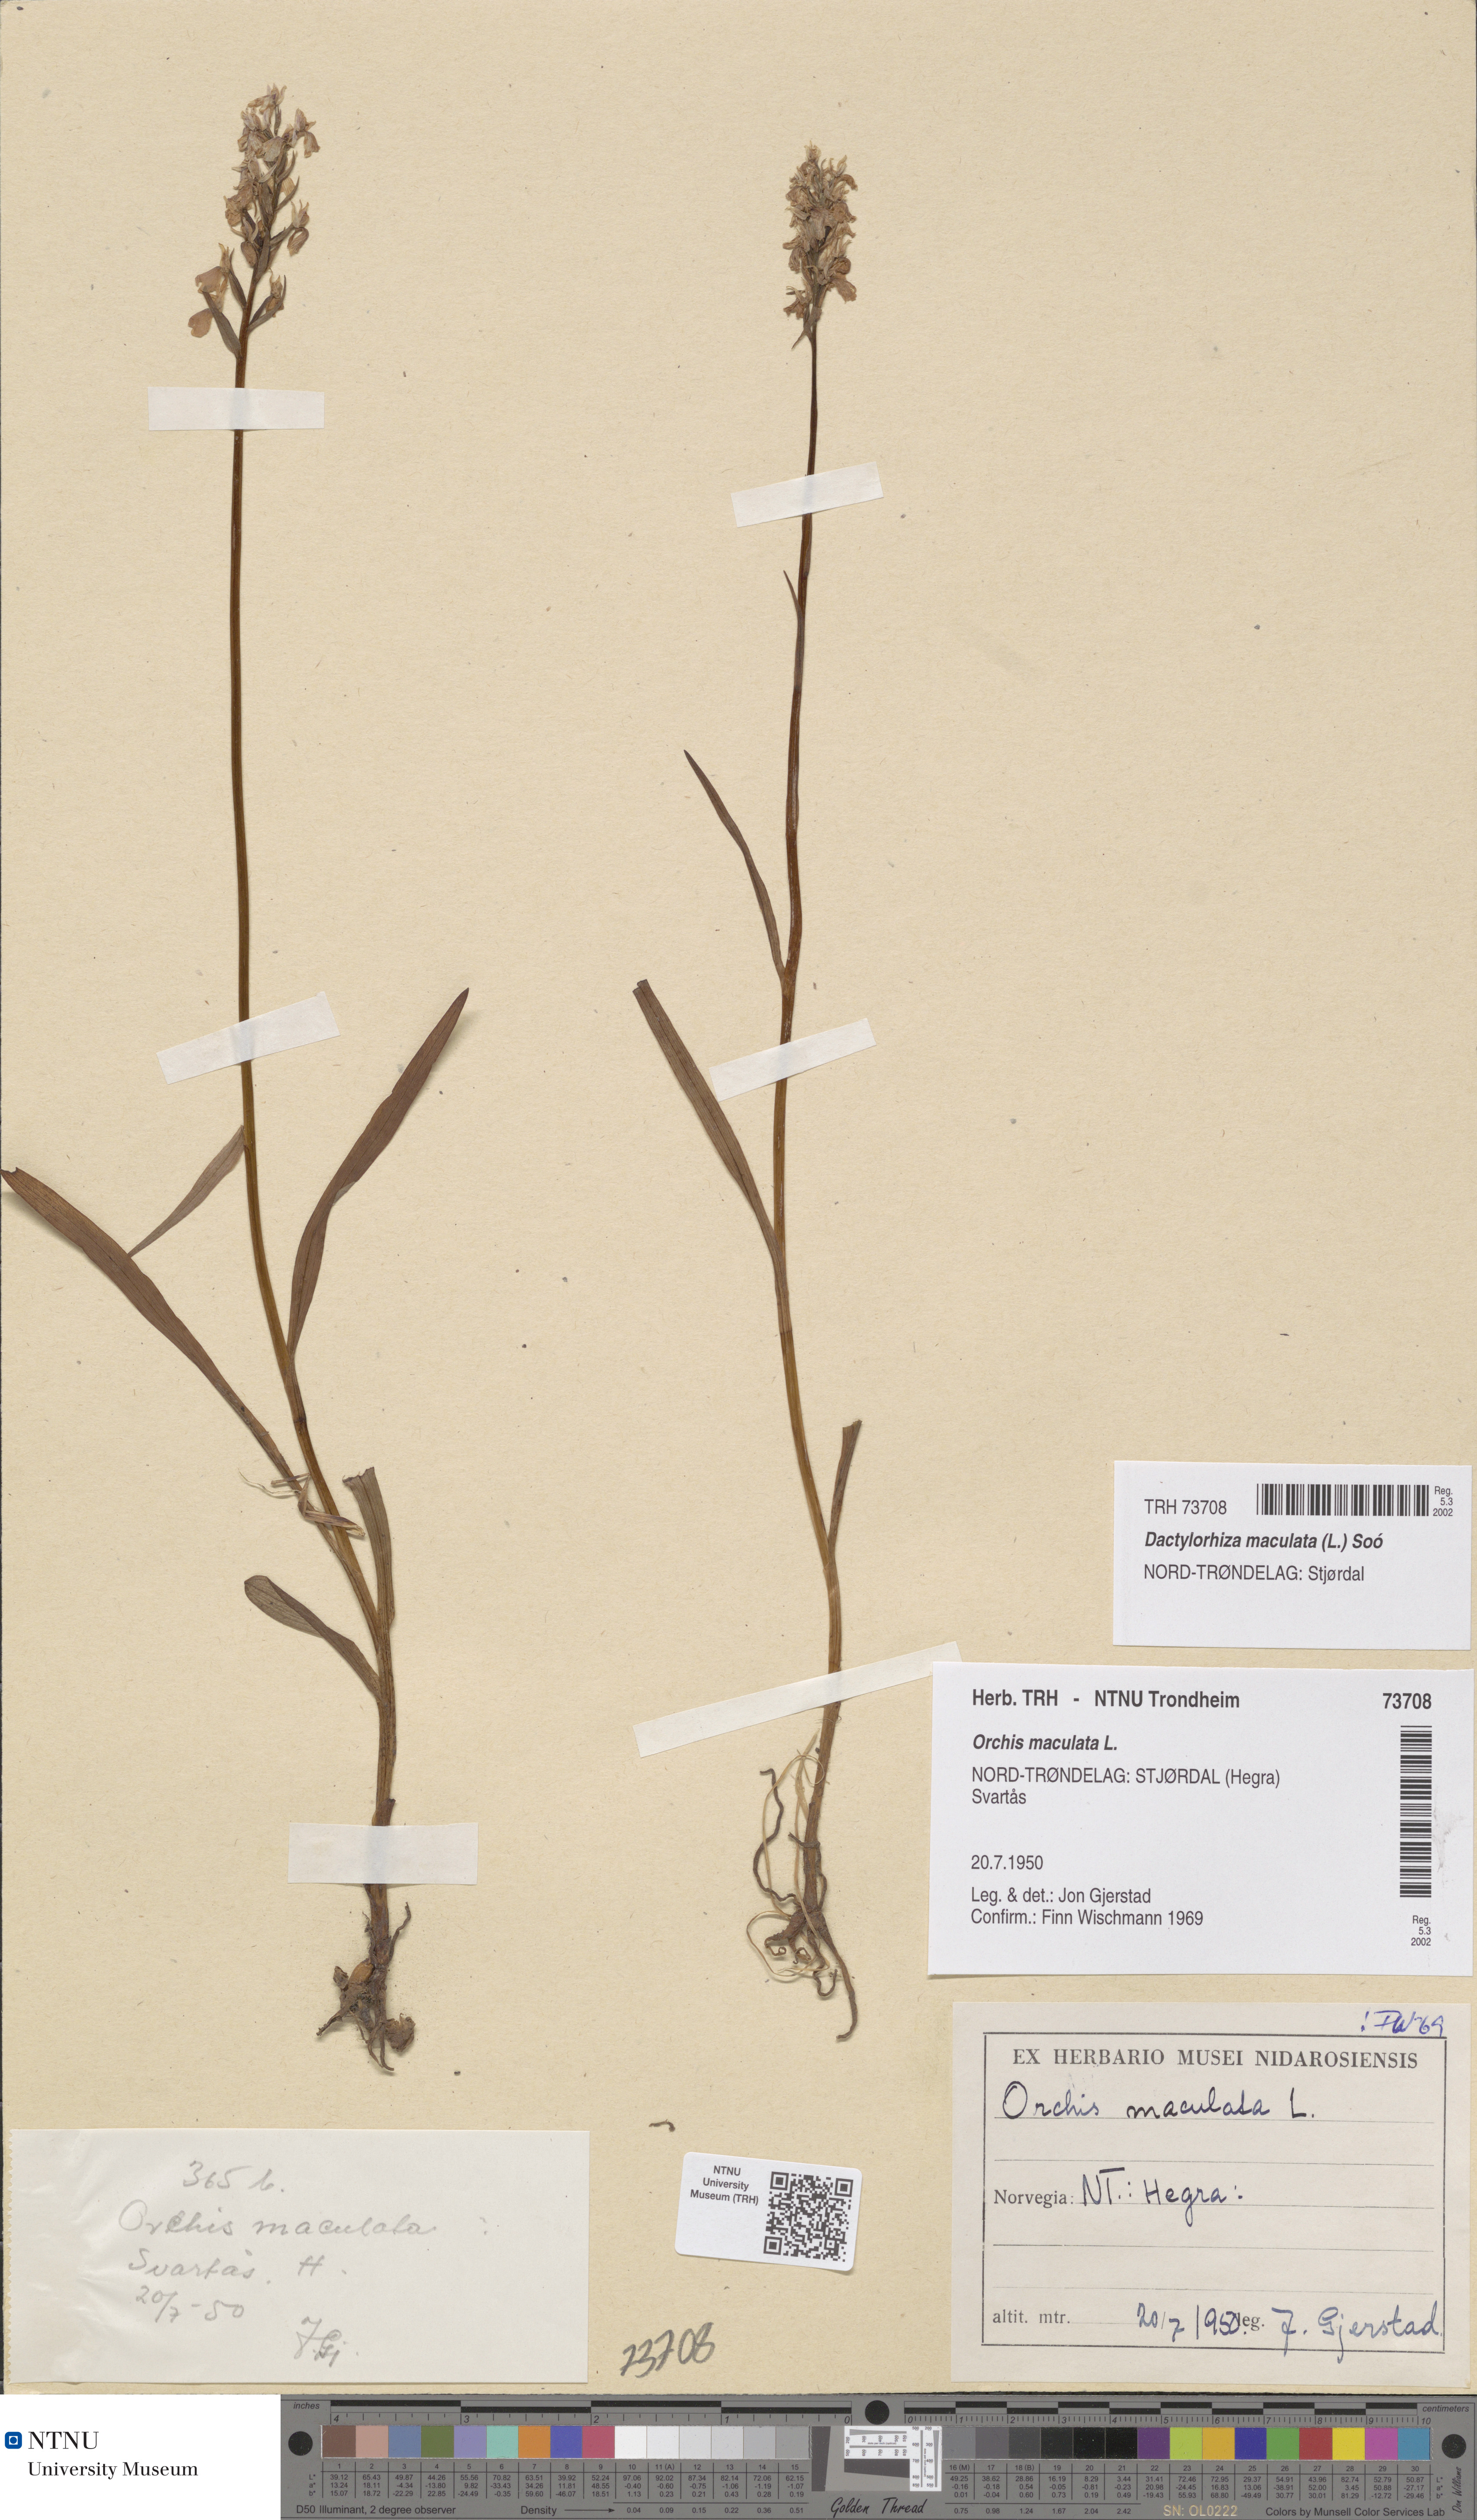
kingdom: Plantae
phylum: Tracheophyta
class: Liliopsida
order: Asparagales
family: Orchidaceae
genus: Dactylorhiza
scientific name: Dactylorhiza maculata
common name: Heath spotted-orchid
